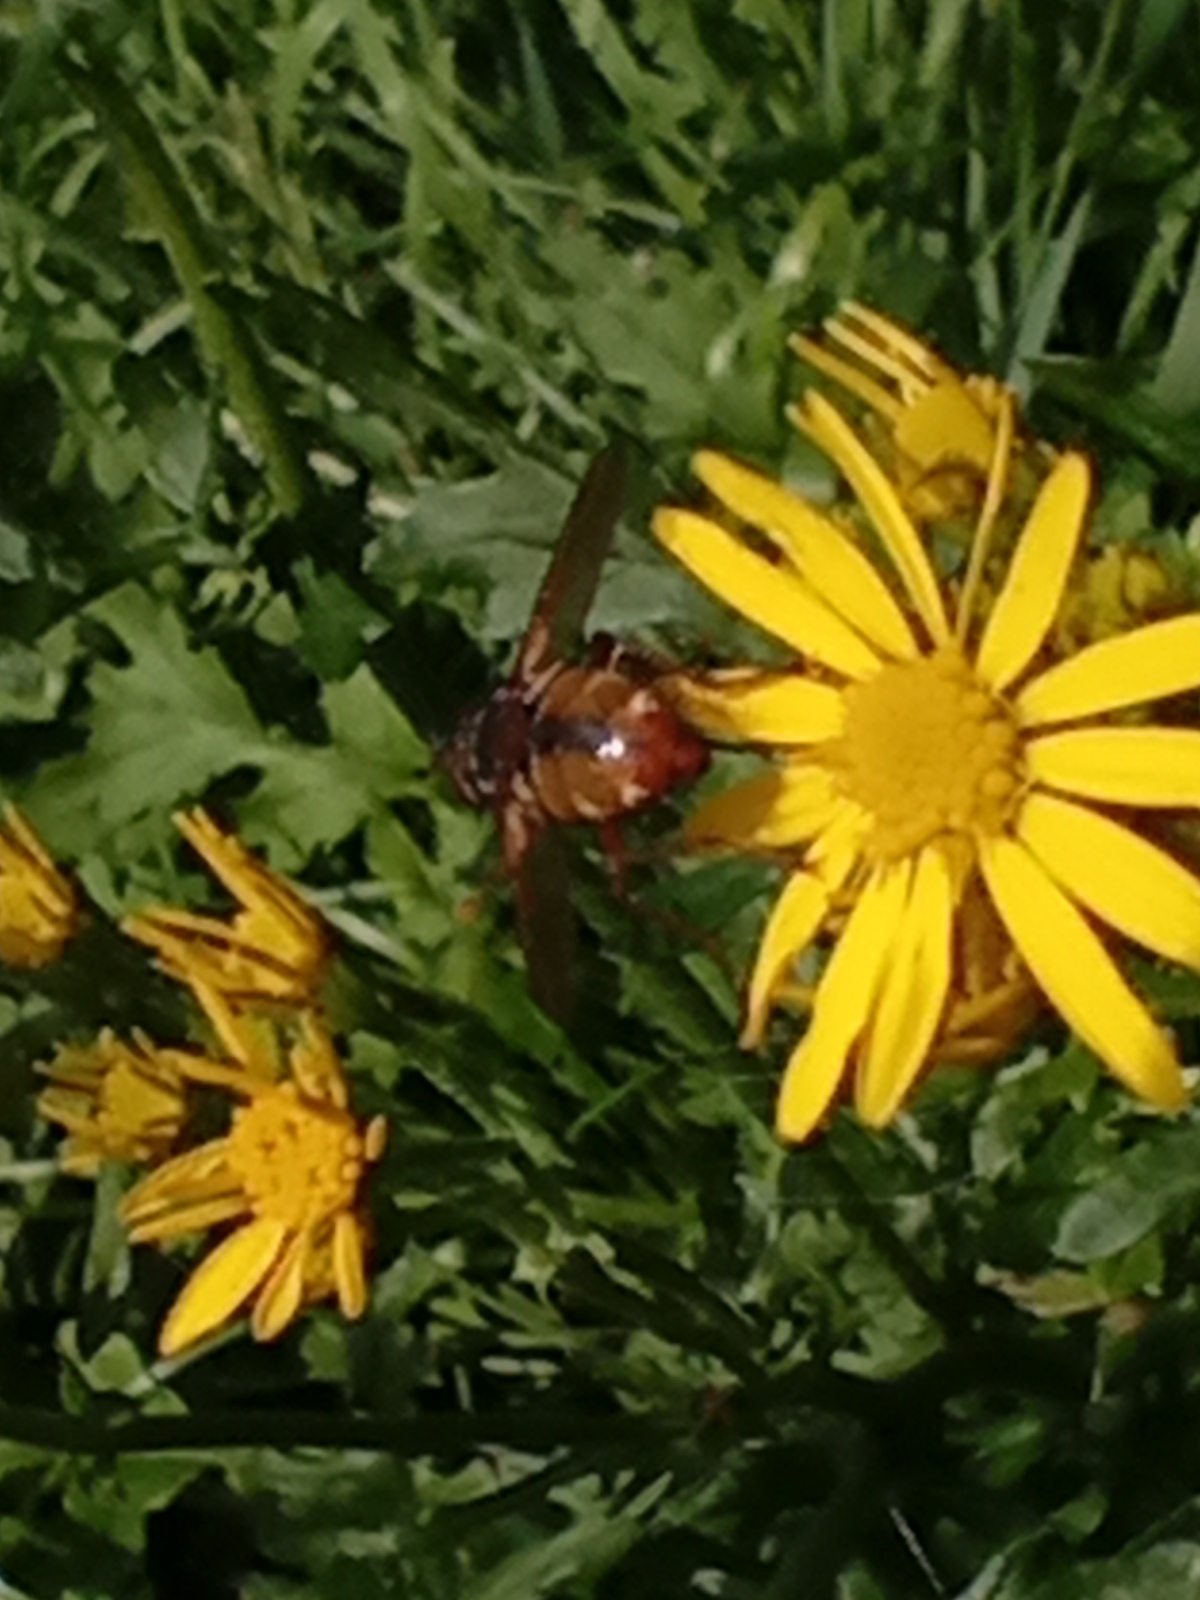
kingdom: Animalia
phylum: Arthropoda
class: Insecta
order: Diptera
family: Tachinidae
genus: Tachina
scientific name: Tachina fera
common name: Mellemfluen oskar
